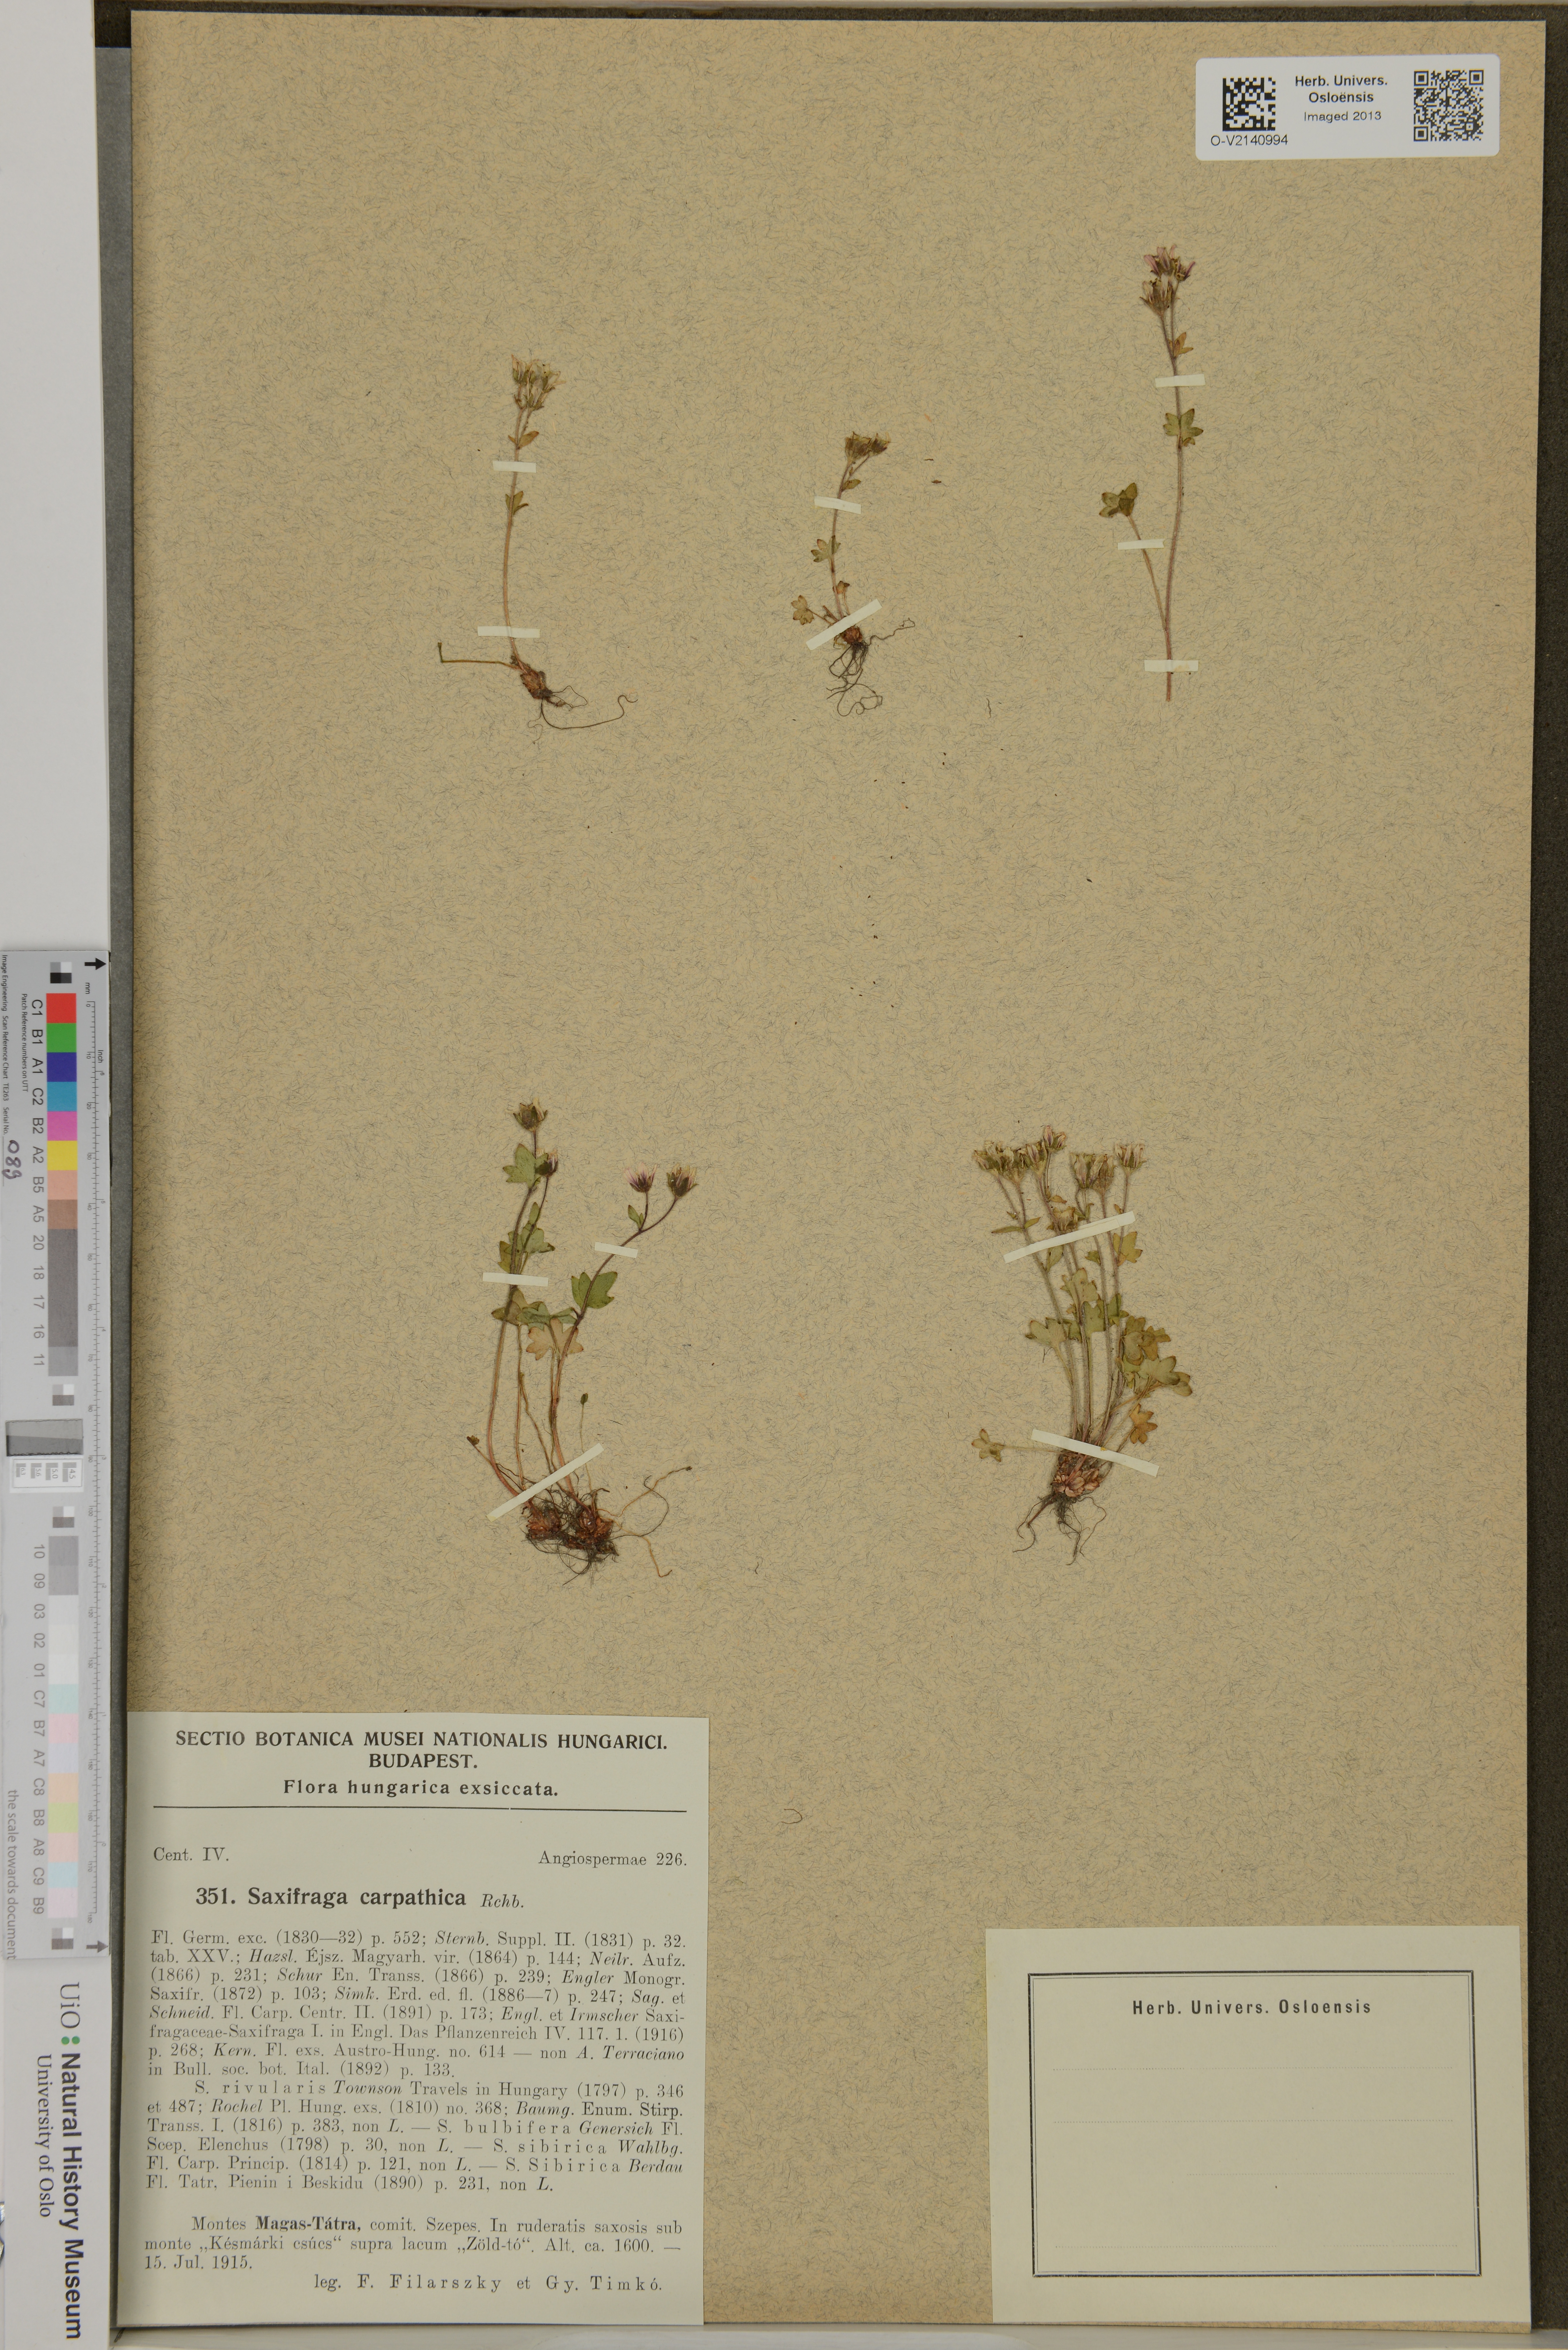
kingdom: Plantae
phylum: Tracheophyta
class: Magnoliopsida
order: Saxifragales
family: Saxifragaceae
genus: Saxifraga
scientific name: Saxifraga
